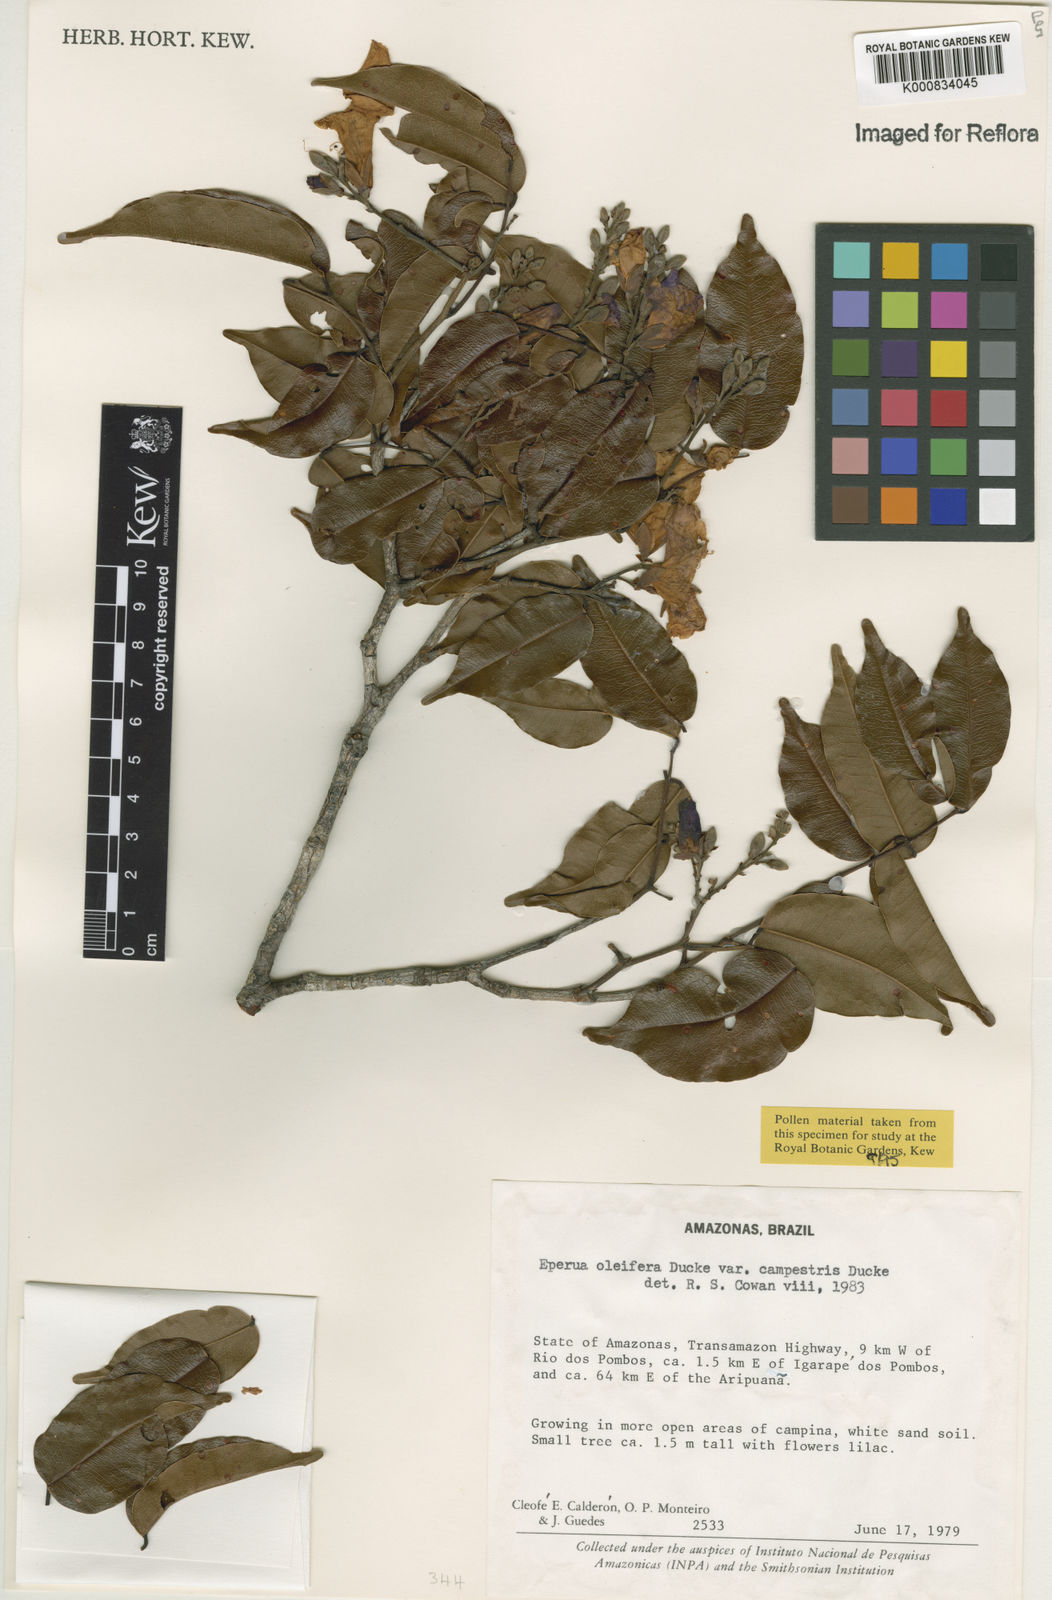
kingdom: Plantae
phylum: Tracheophyta
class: Magnoliopsida
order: Fabales
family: Fabaceae
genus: Eperua
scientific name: Eperua oleifera
